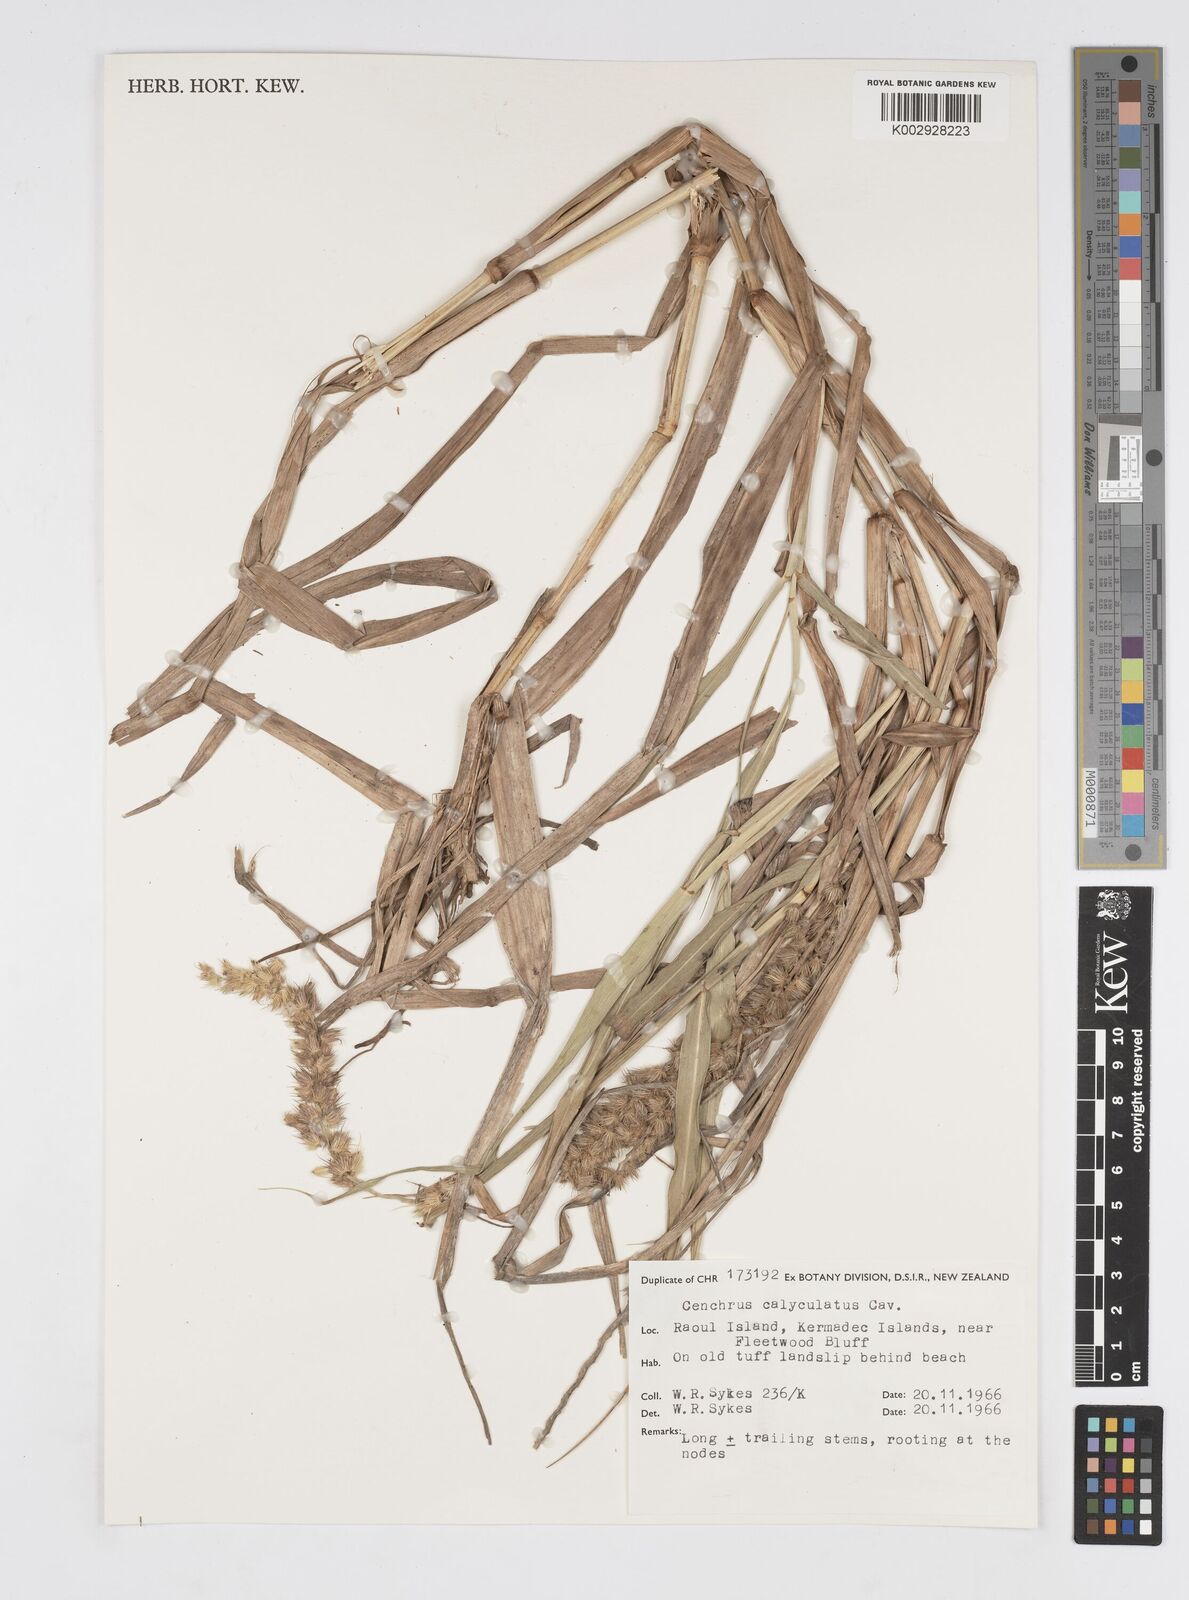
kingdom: Plantae
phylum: Tracheophyta
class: Liliopsida
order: Poales
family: Poaceae
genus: Cenchrus
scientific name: Cenchrus caliculatus
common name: Large bur grass
